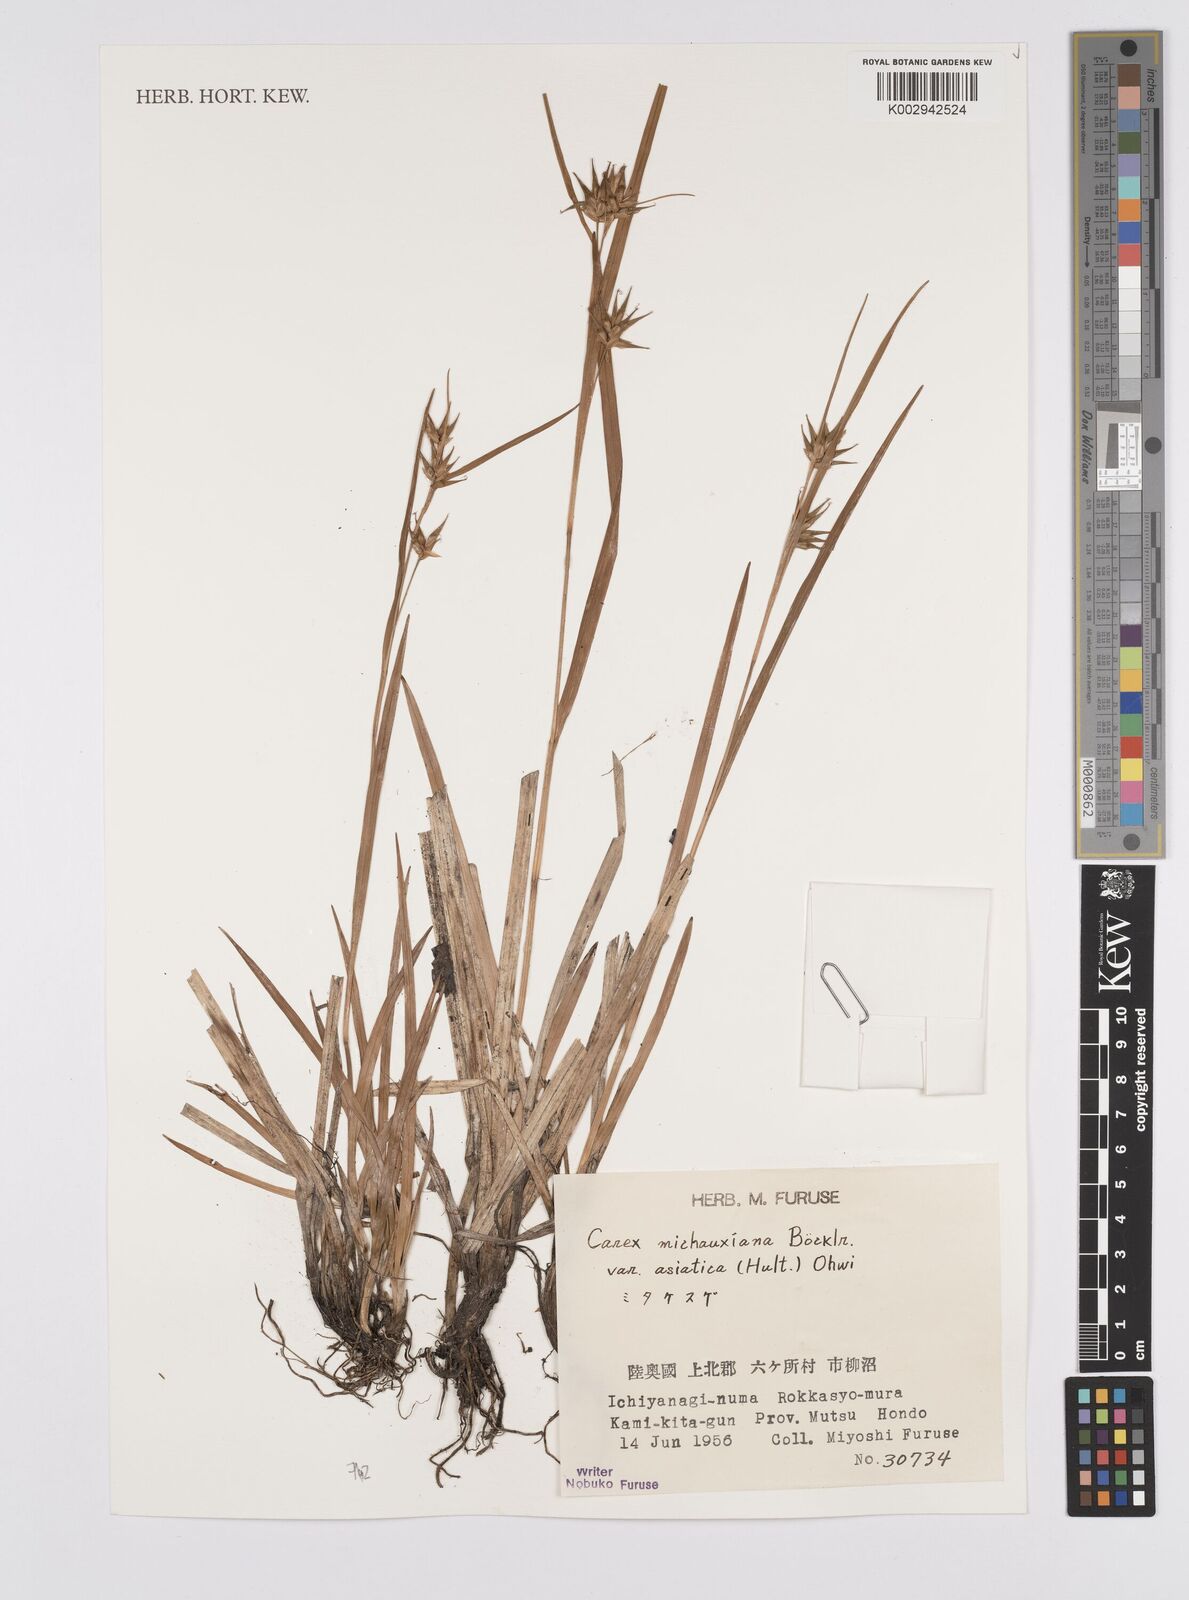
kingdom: Plantae
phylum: Tracheophyta
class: Liliopsida
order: Poales
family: Cyperaceae
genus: Carex
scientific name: Carex michauxiana
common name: Michaux's sedge
